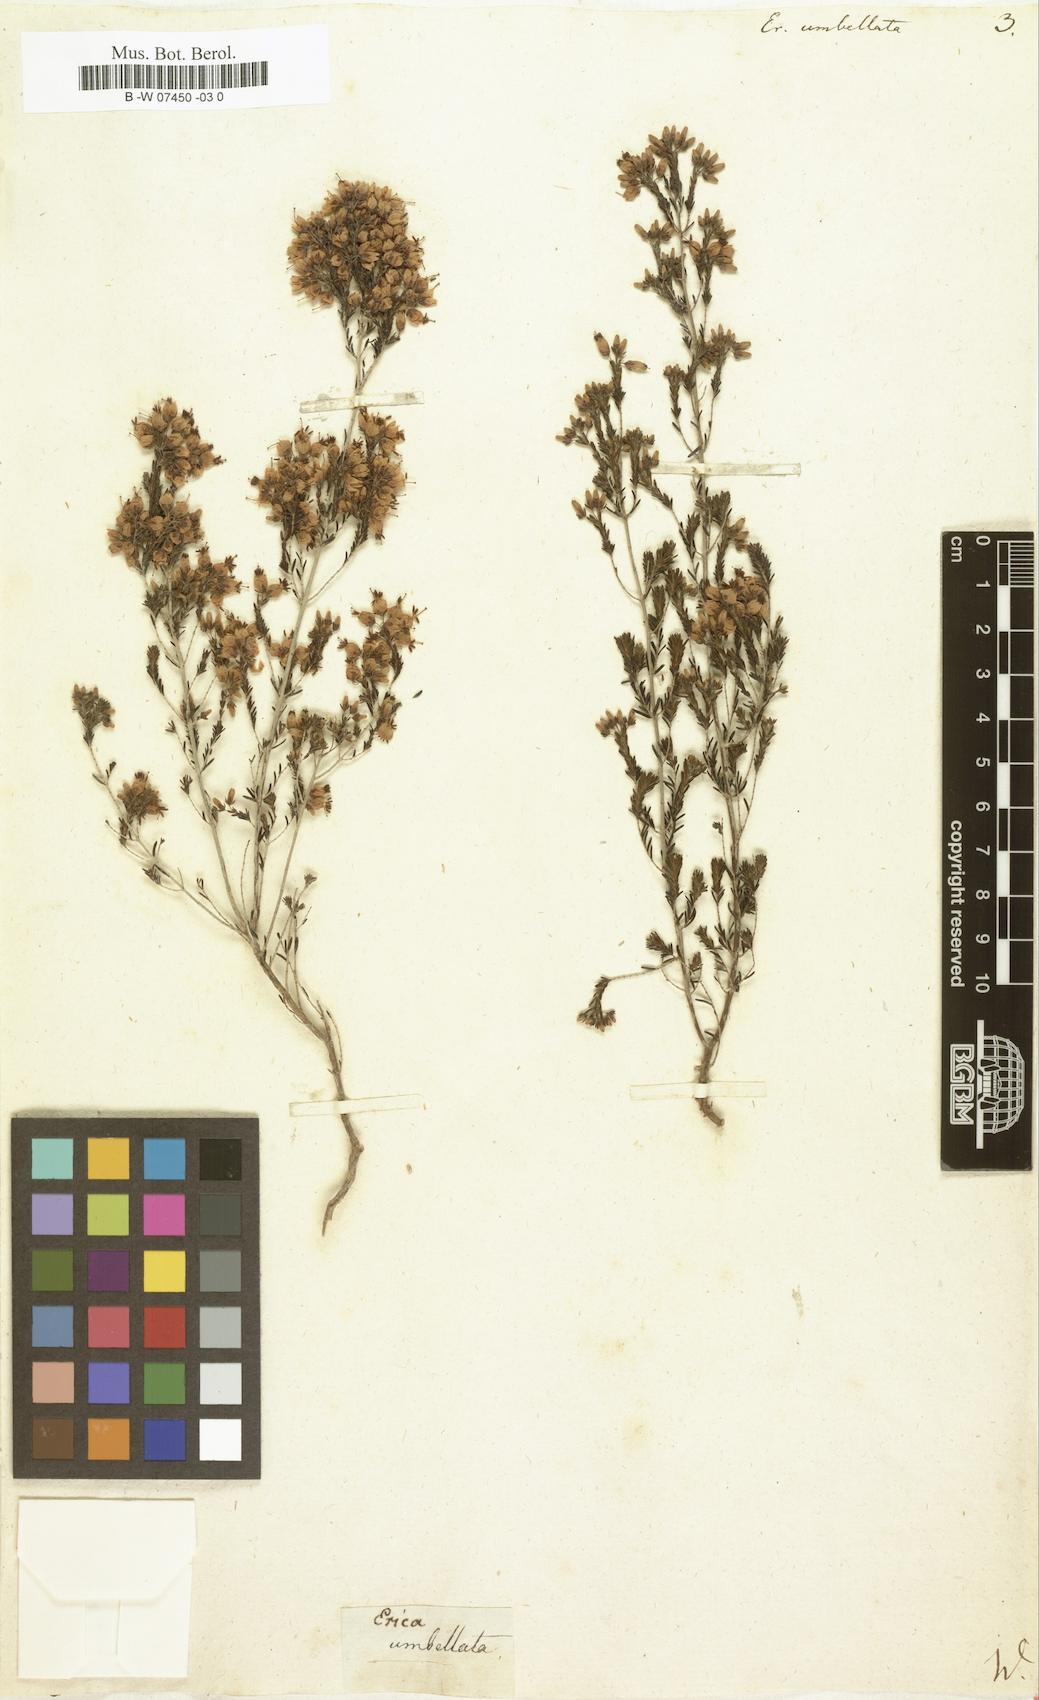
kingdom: Plantae
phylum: Tracheophyta
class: Magnoliopsida
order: Ericales
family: Ericaceae
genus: Erica
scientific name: Erica nutans
